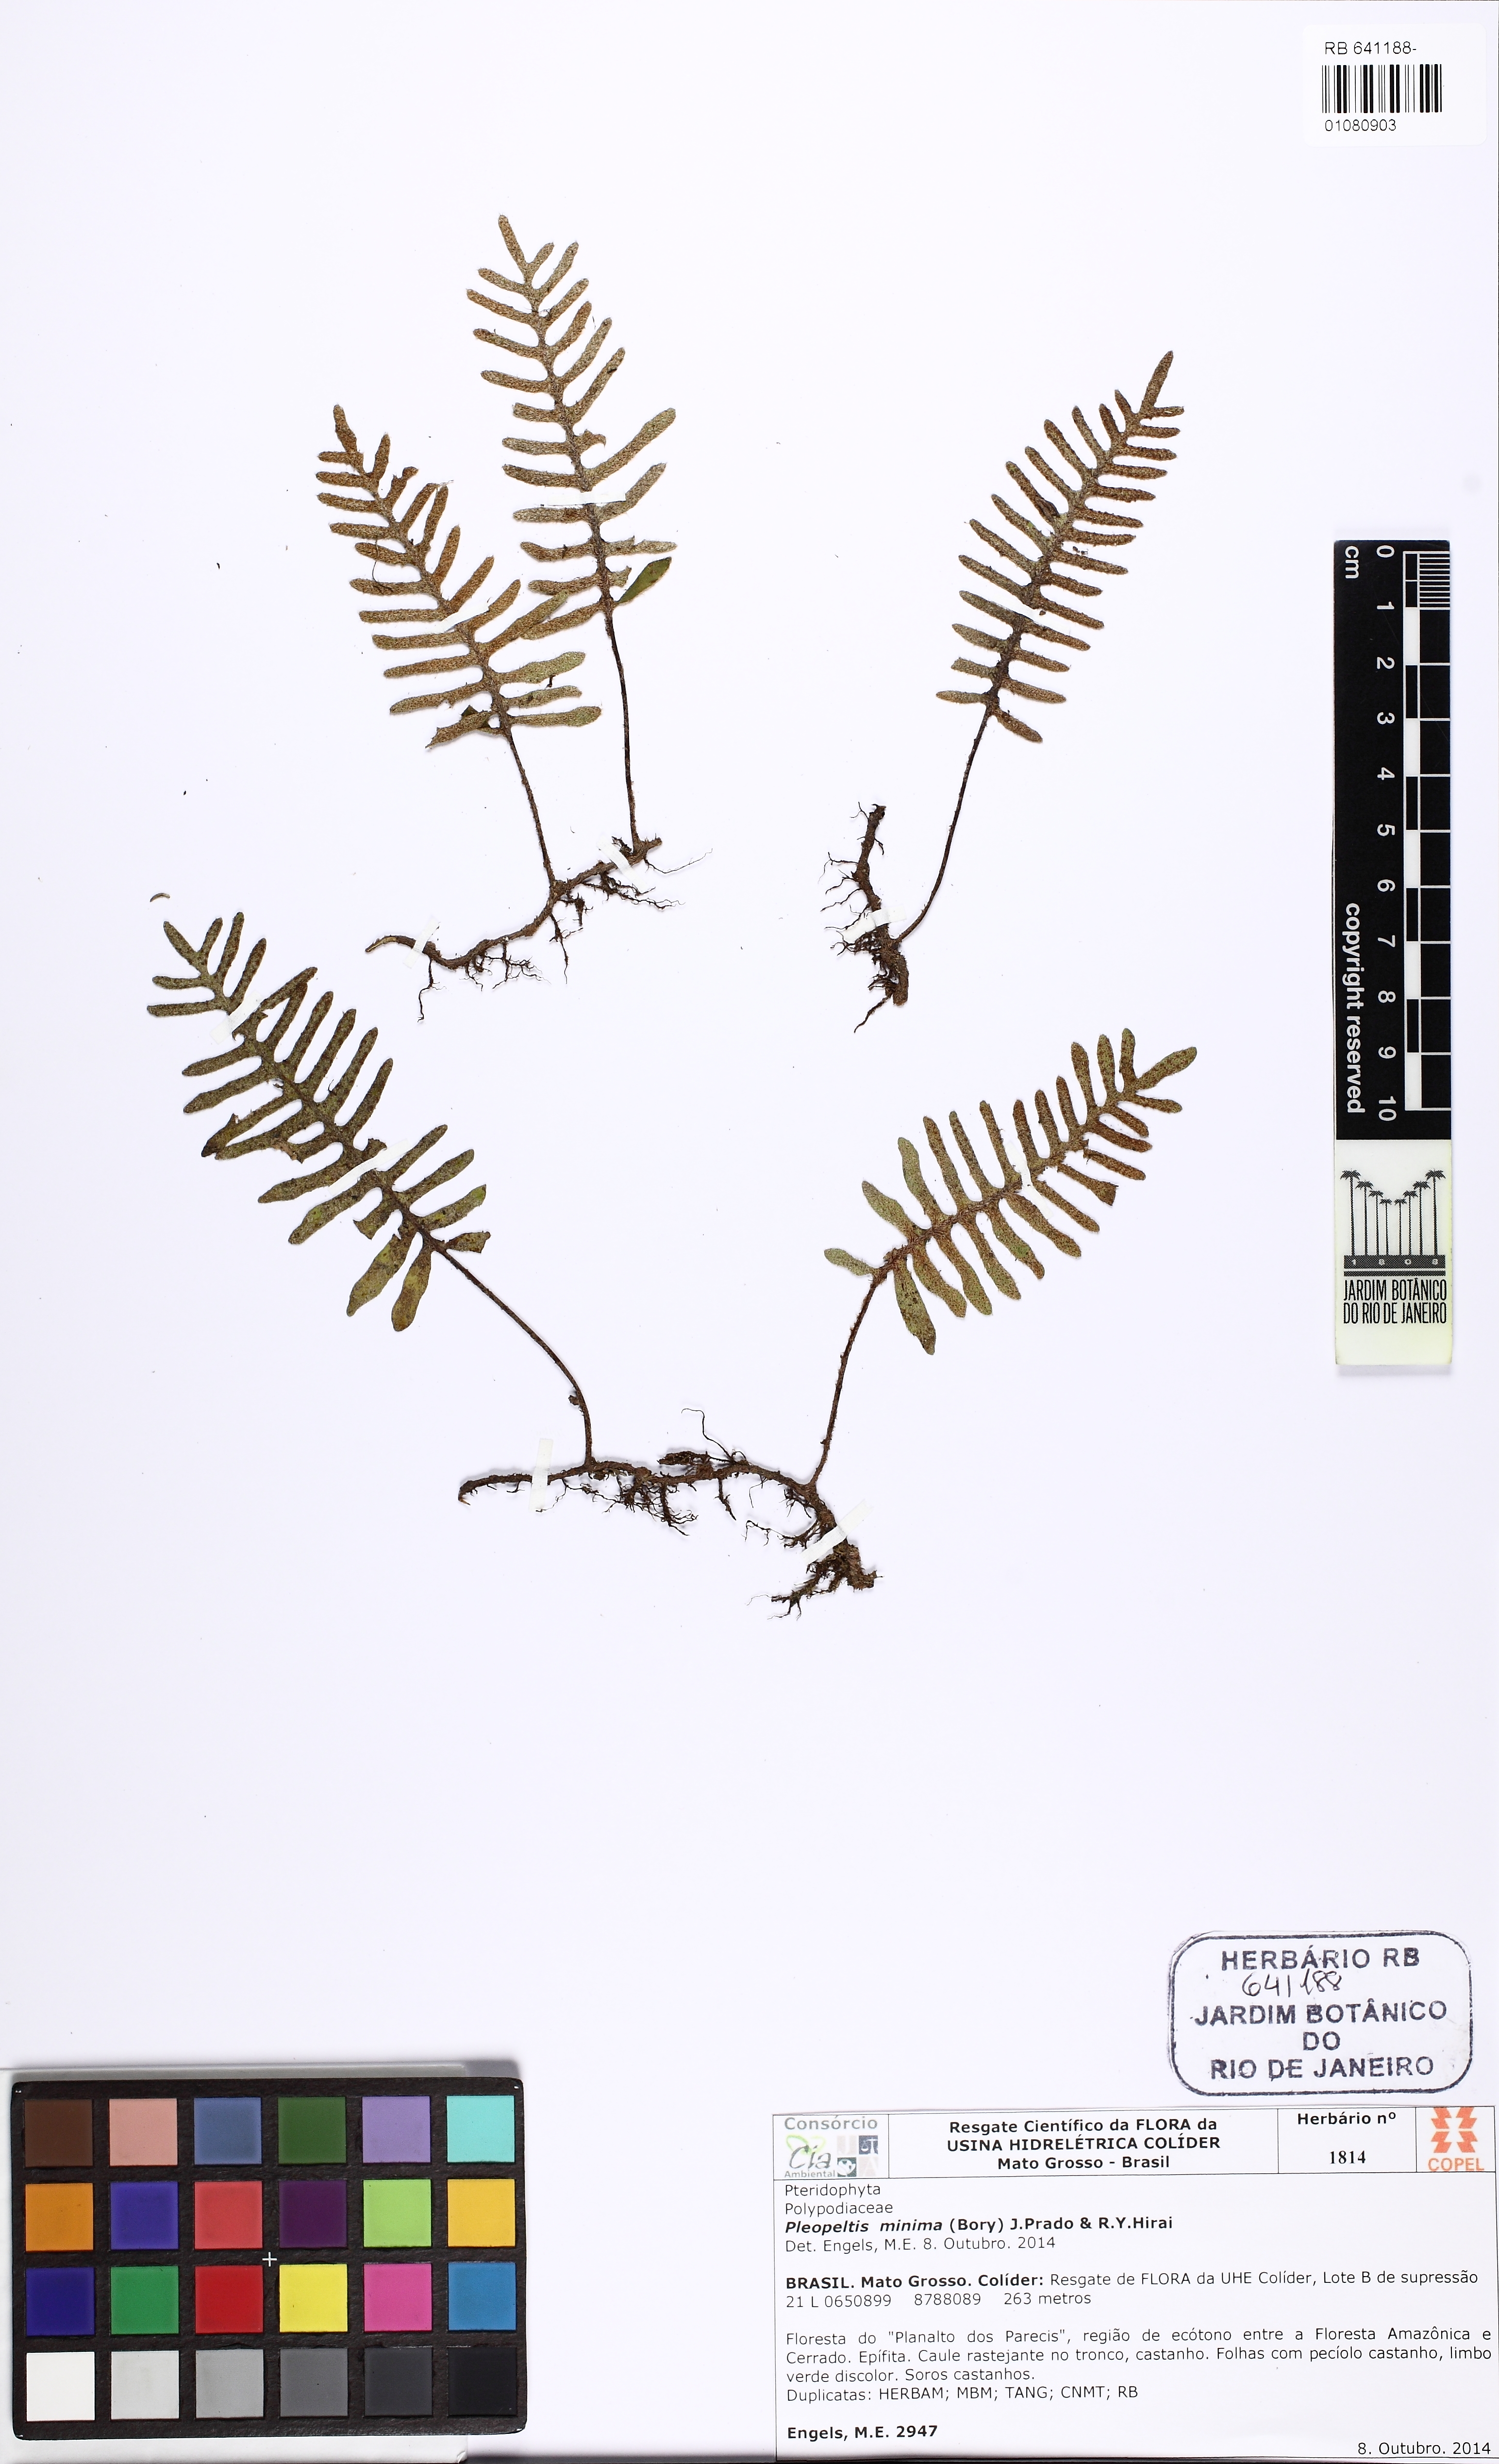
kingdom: Plantae
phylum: Tracheophyta
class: Polypodiopsida
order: Polypodiales
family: Polypodiaceae
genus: Pleopeltis
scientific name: Pleopeltis burchellii
